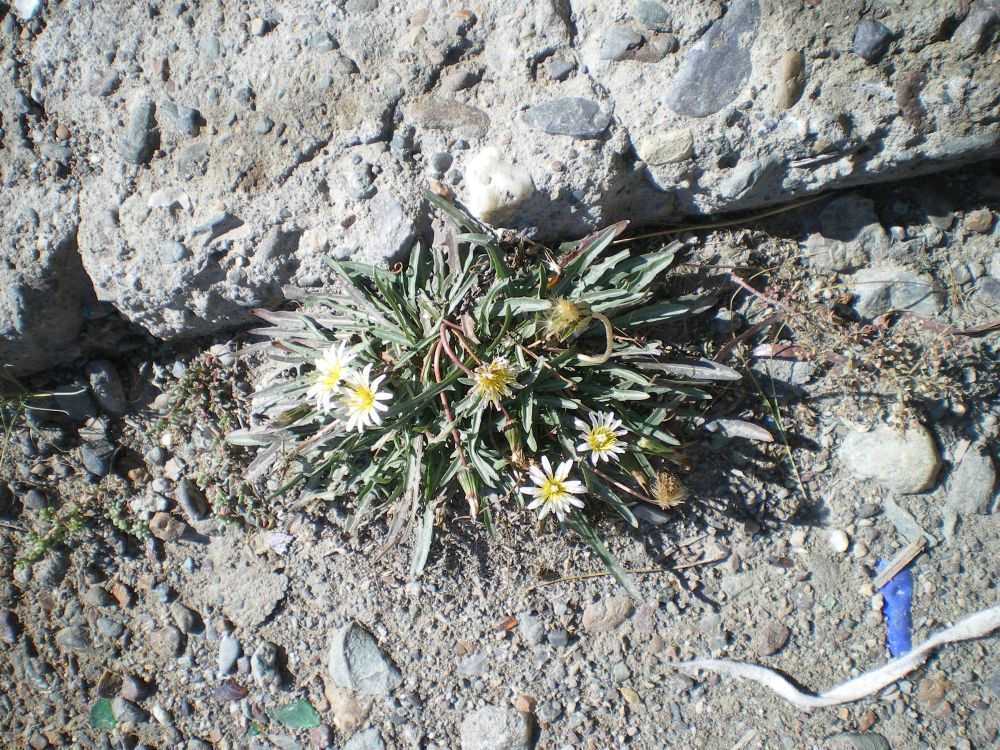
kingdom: Plantae
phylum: Tracheophyta
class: Magnoliopsida
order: Asterales
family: Asteraceae
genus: Taraxacum
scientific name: Taraxacum leucanthum
